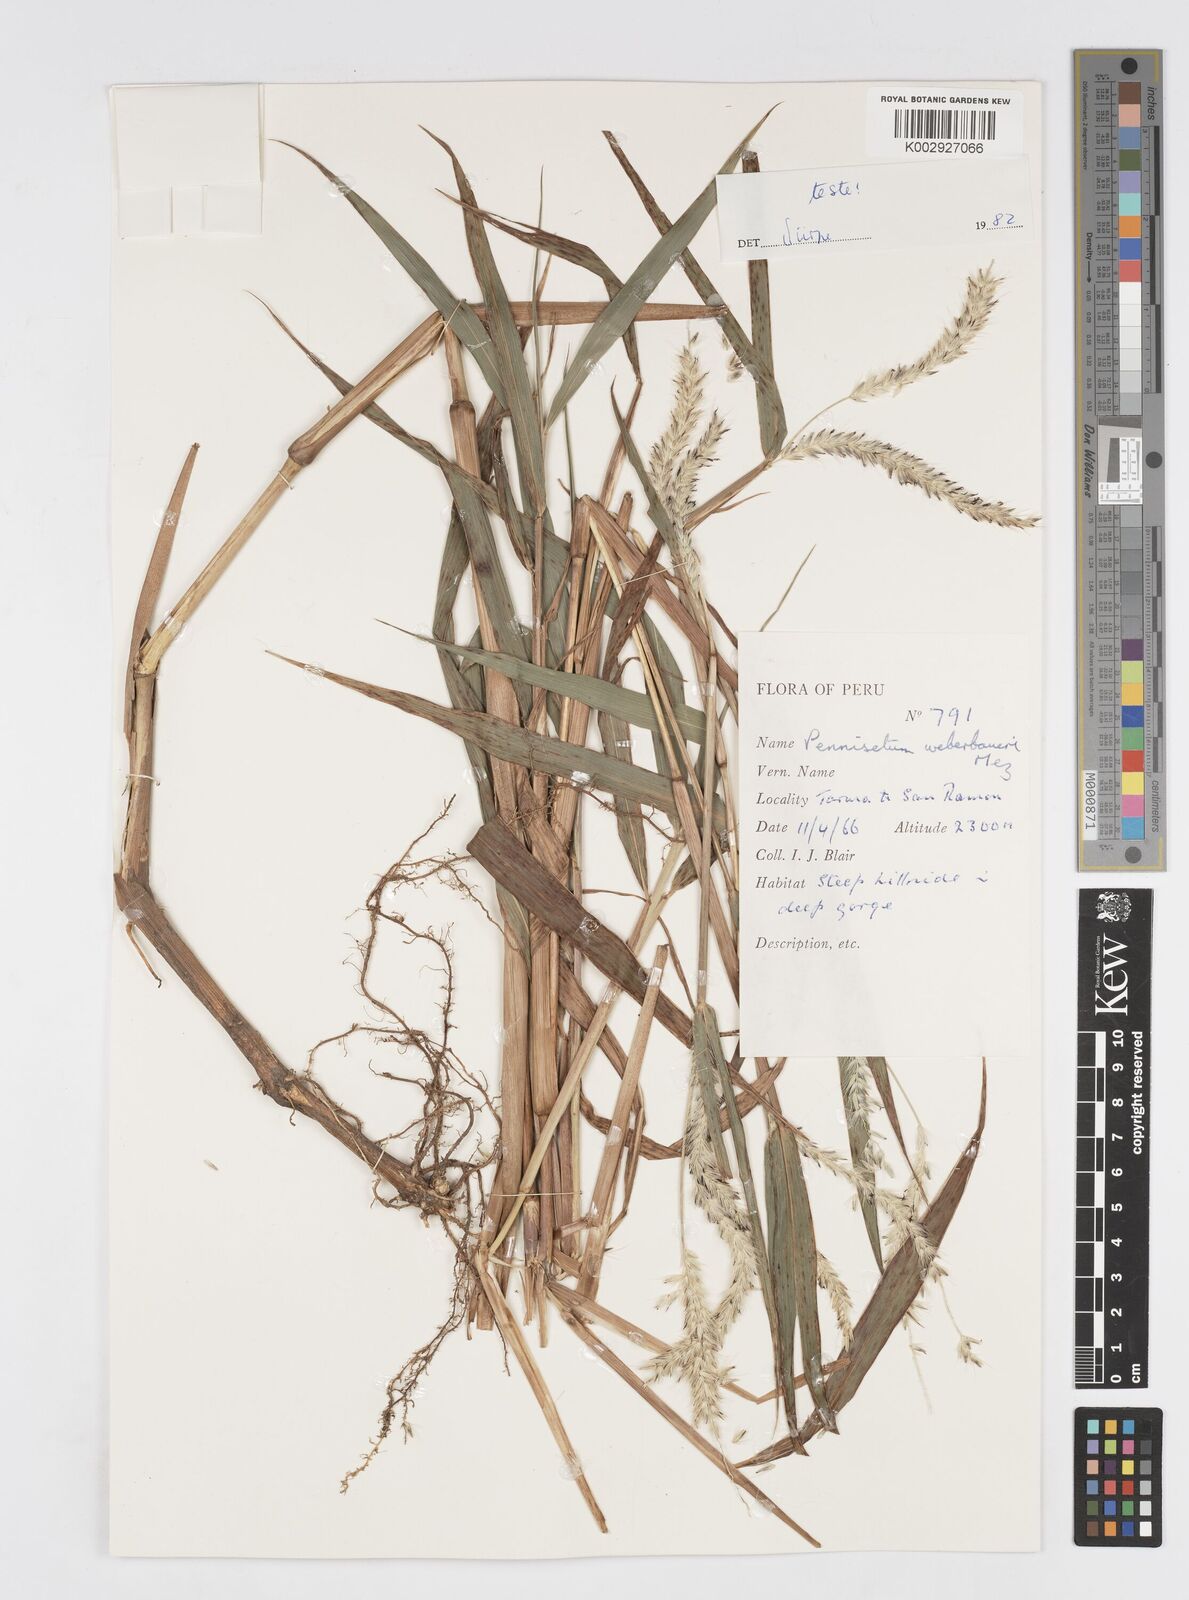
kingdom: Plantae
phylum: Tracheophyta
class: Liliopsida
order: Poales
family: Poaceae
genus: Cenchrus
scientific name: Cenchrus weberbaueri
